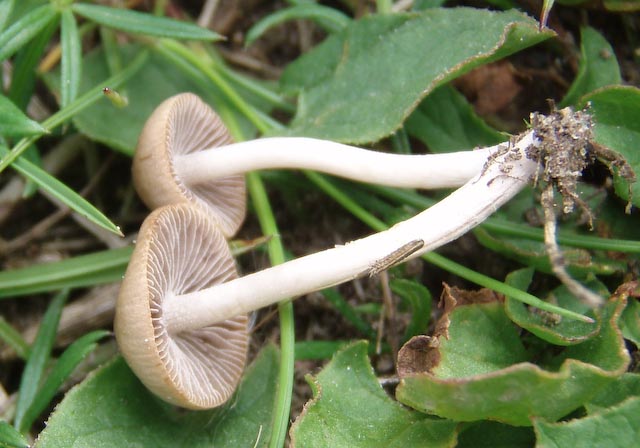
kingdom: Fungi
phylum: Basidiomycota
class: Agaricomycetes
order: Agaricales
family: Psathyrellaceae
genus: Psathyrella
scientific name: Psathyrella arenosa
